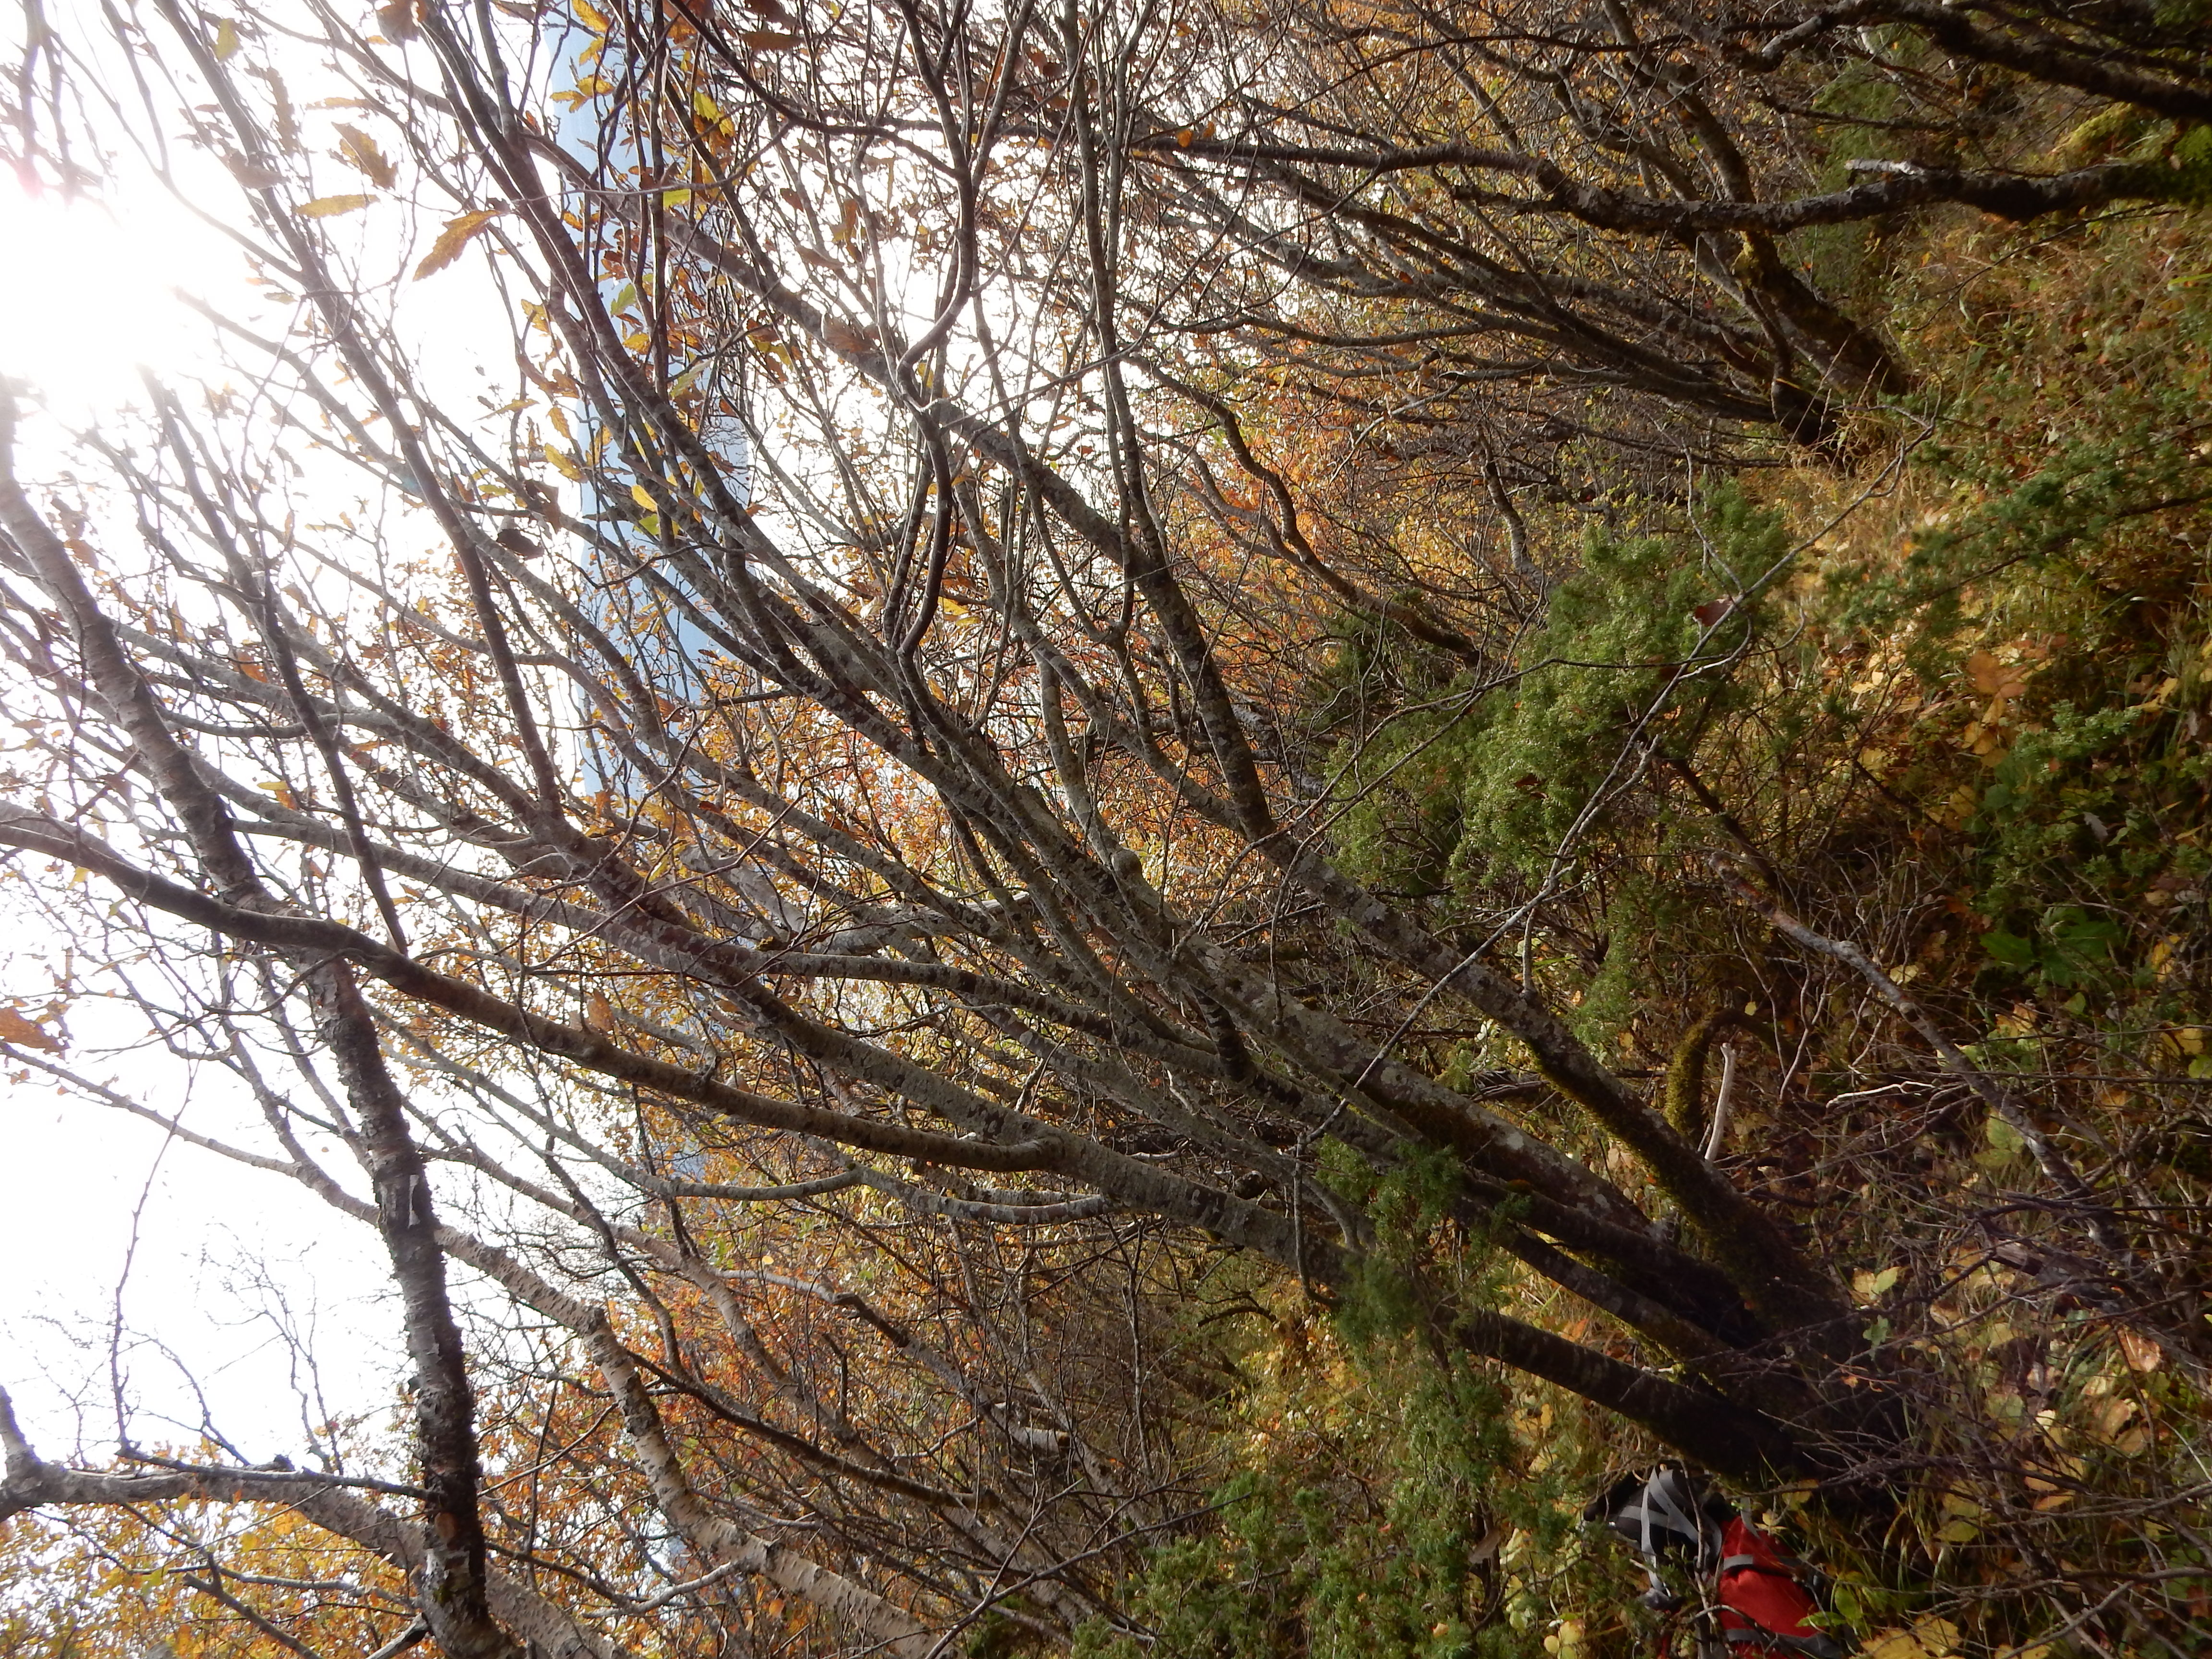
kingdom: Plantae
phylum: Tracheophyta
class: Magnoliopsida
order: Rosales
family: Rosaceae
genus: Hedlundia
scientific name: Hedlundia lancifolia
